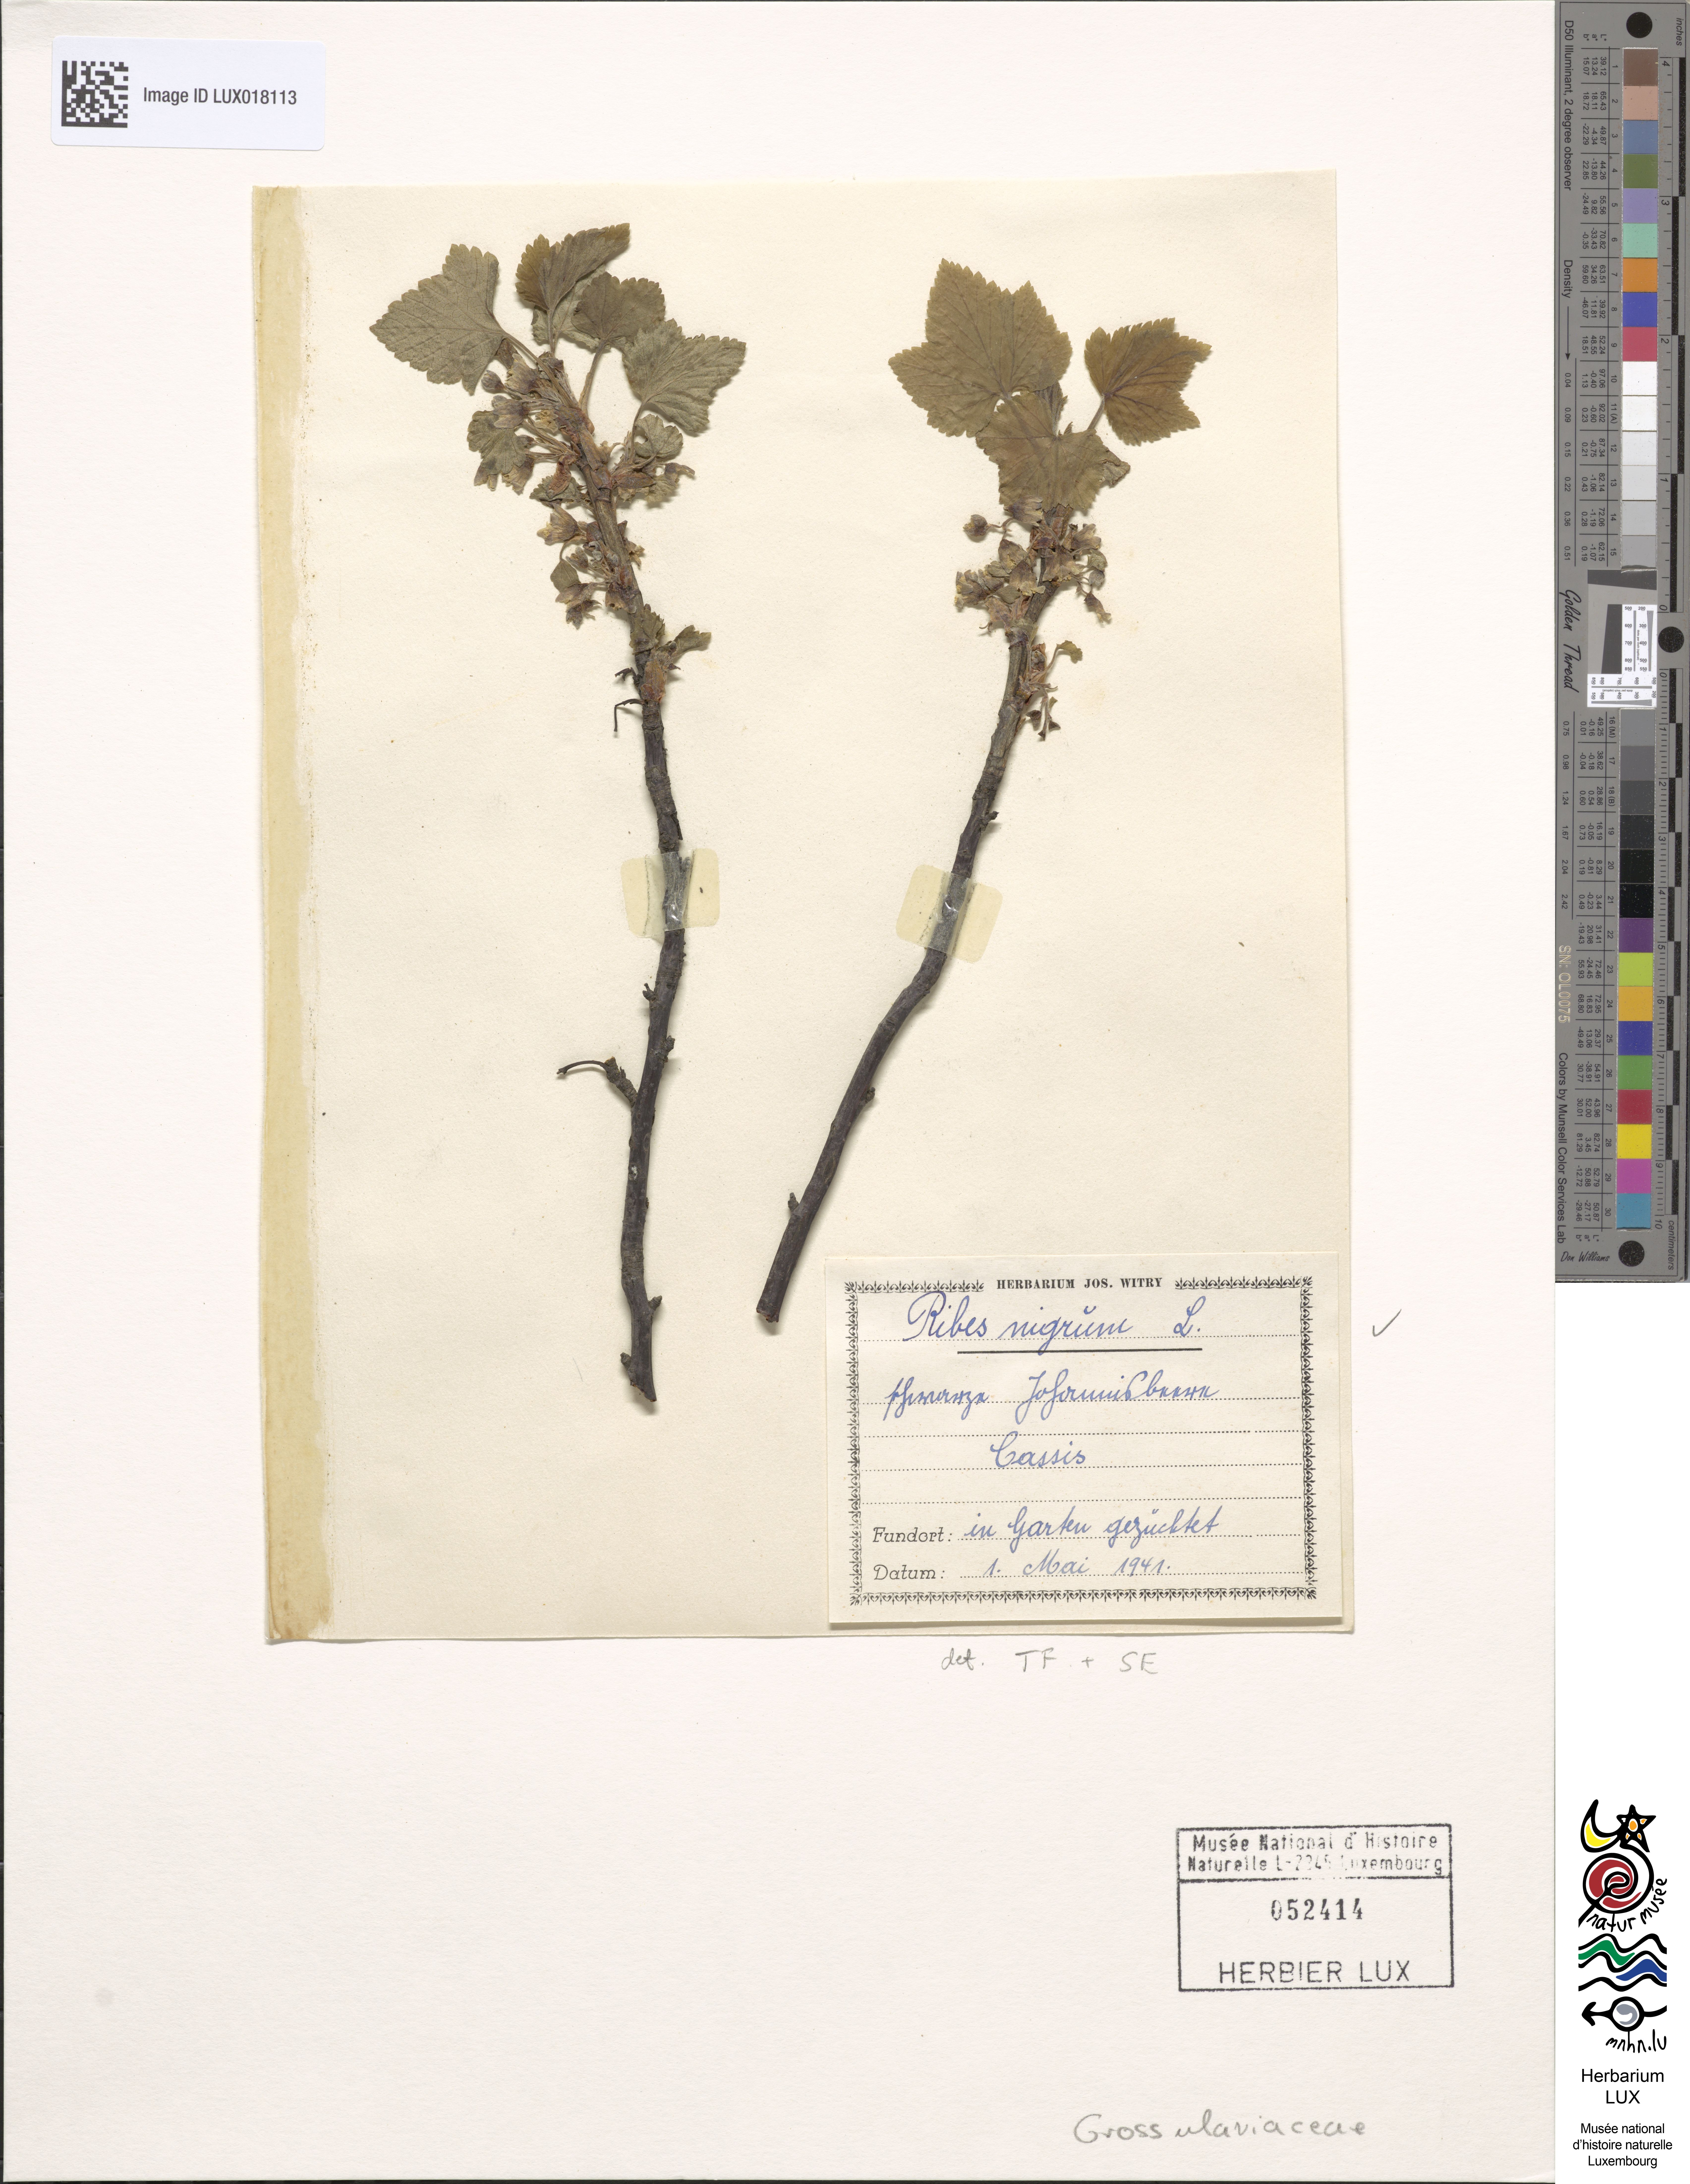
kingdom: Plantae
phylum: Tracheophyta
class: Magnoliopsida
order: Saxifragales
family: Grossulariaceae
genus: Ribes
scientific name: Ribes nigrum
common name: Black currant
